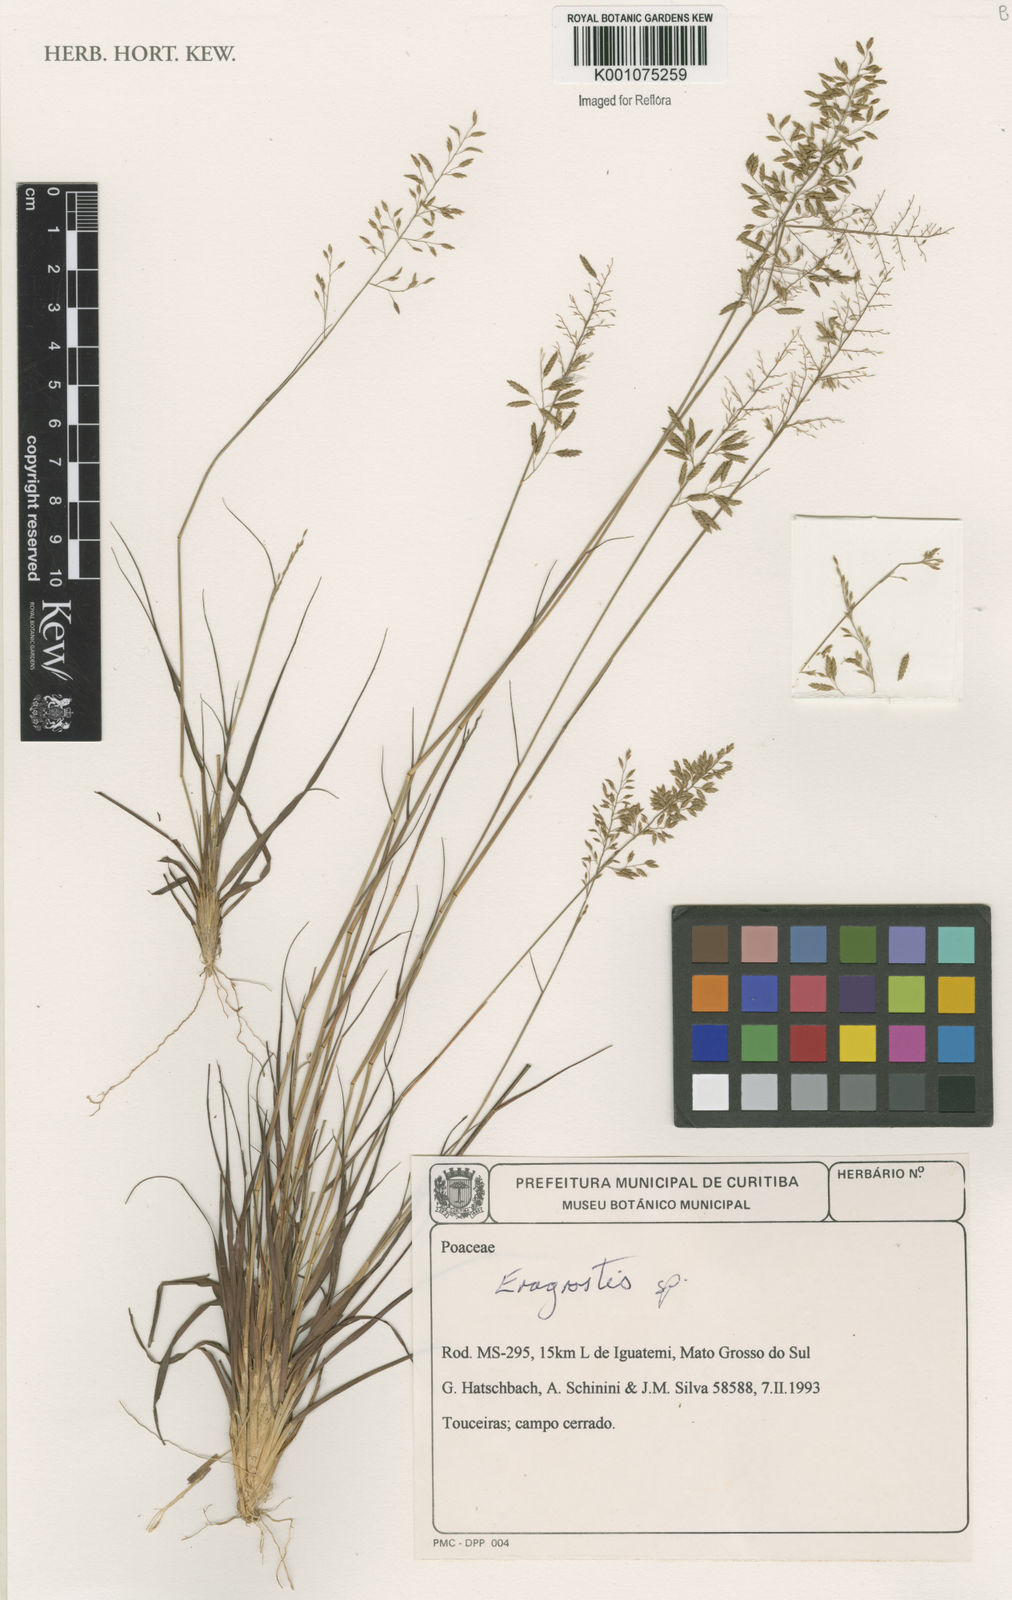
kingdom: Plantae
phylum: Tracheophyta
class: Liliopsida
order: Poales
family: Poaceae
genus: Eragrostis
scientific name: Eragrostis
